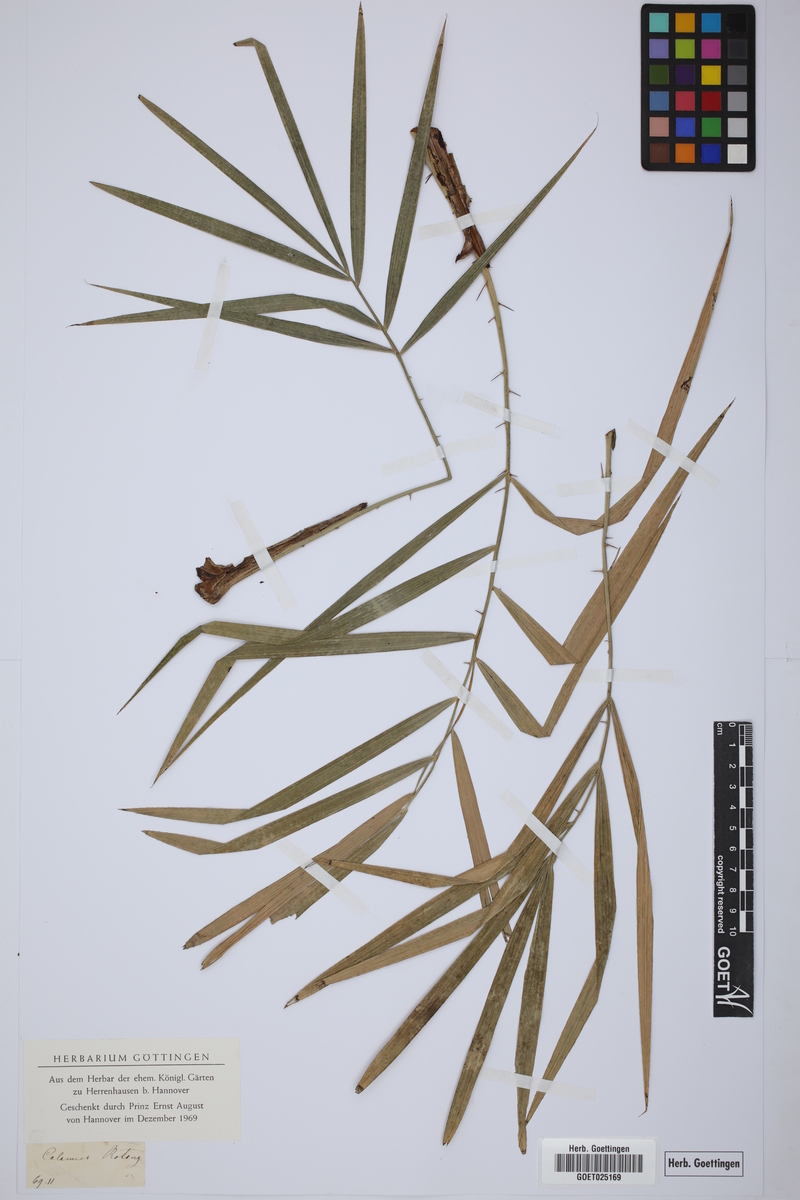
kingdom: Plantae
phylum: Tracheophyta
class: Liliopsida
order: Arecales
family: Arecaceae
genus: Calamus
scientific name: Calamus rotang
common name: Rattan cane
